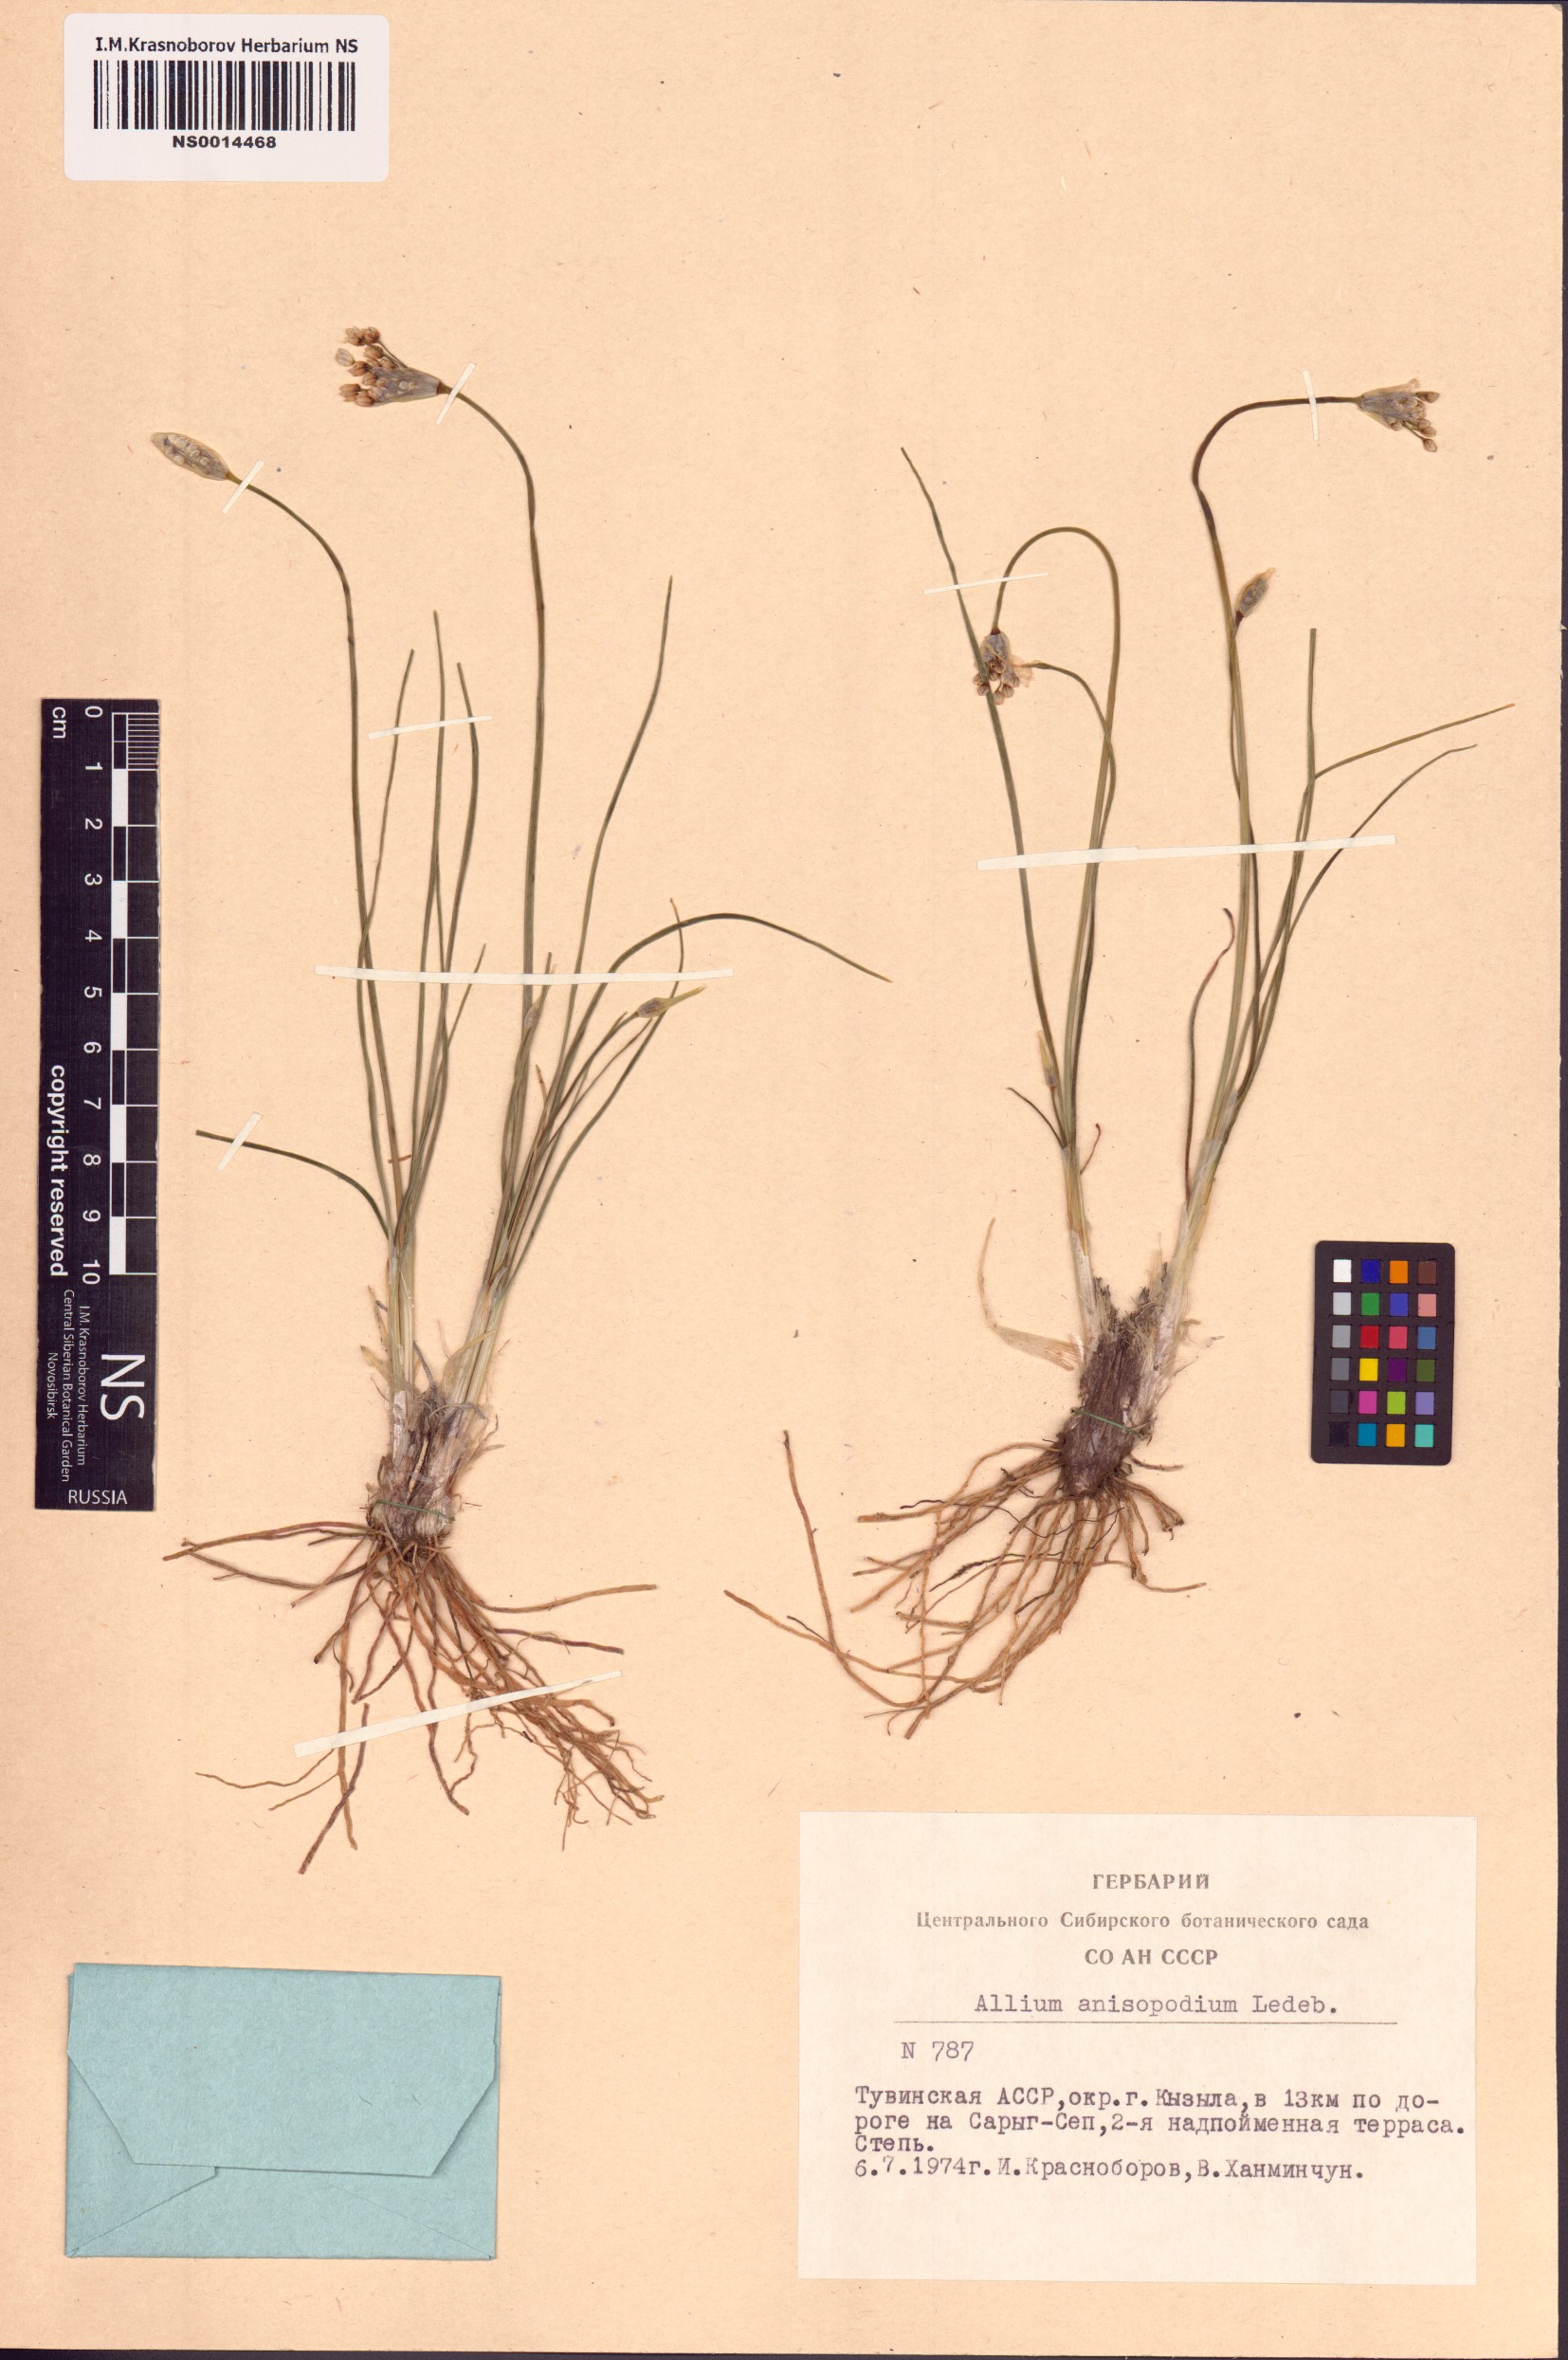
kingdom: Plantae
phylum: Tracheophyta
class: Liliopsida
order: Asparagales
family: Amaryllidaceae
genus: Allium
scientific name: Allium anisopodium
